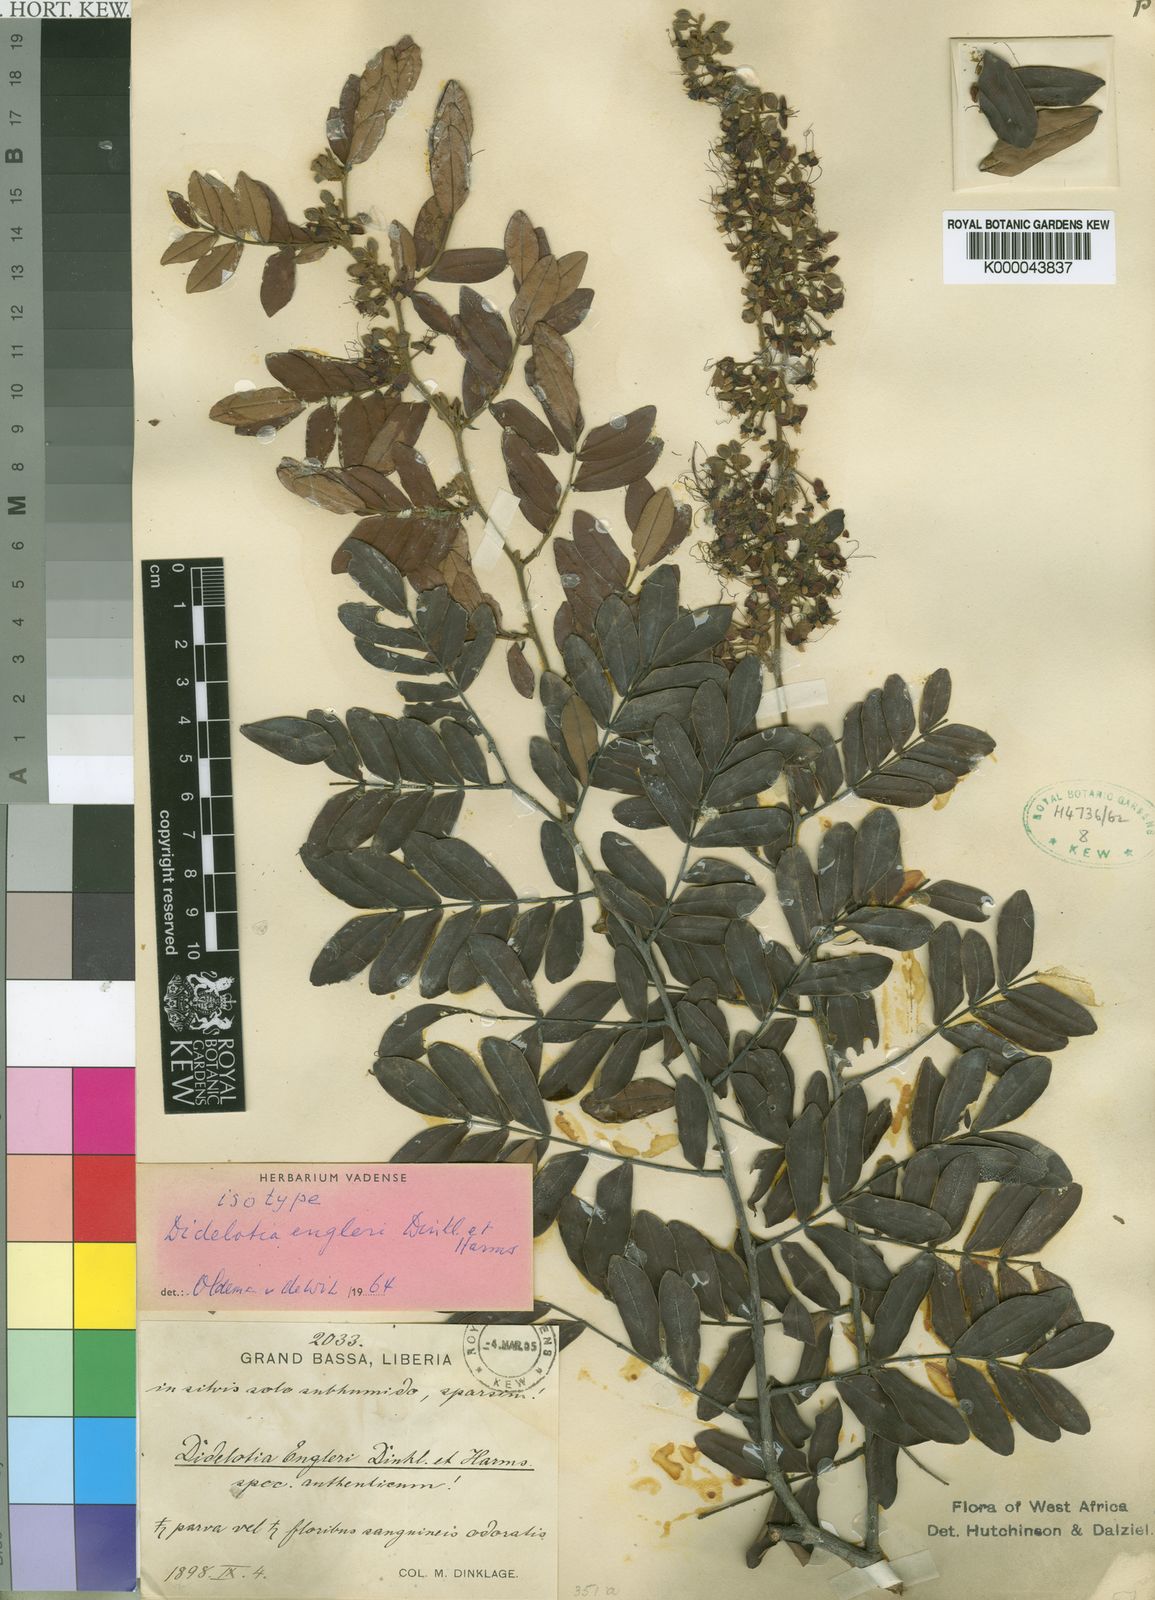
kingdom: Plantae
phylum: Tracheophyta
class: Magnoliopsida
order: Fabales
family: Fabaceae
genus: Didelotia
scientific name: Didelotia engleri
